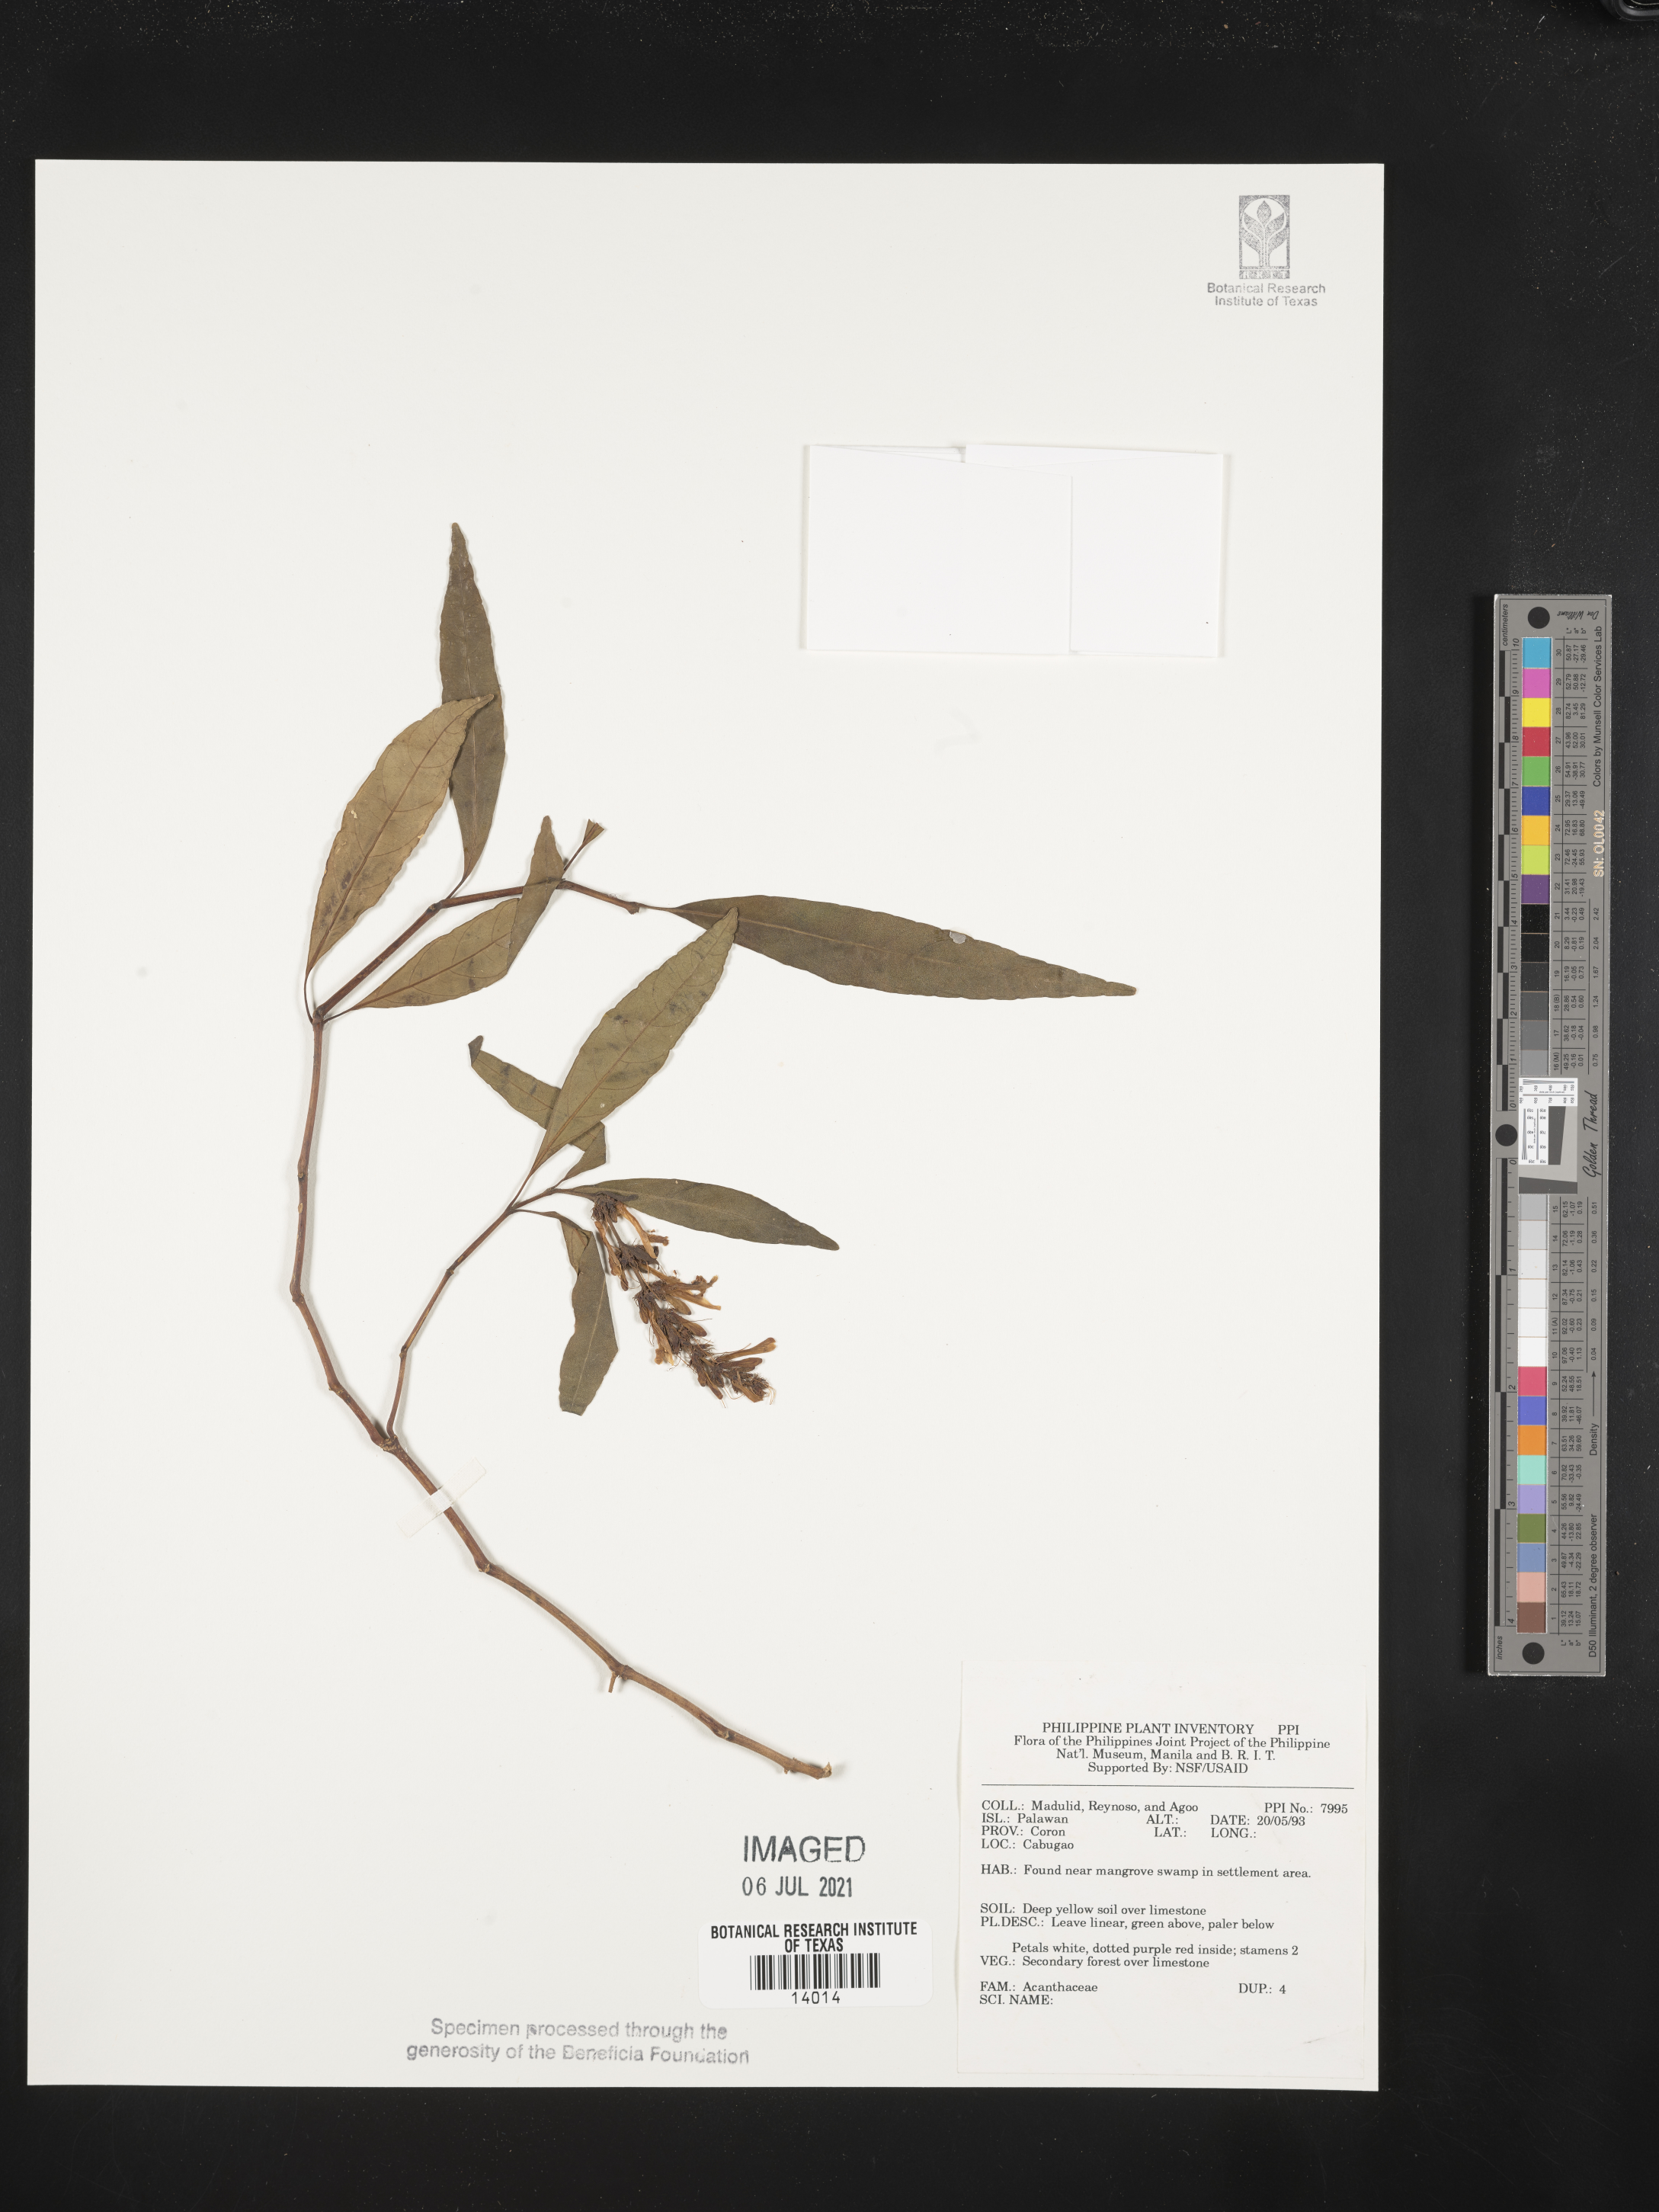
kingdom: Plantae
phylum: Tracheophyta
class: Magnoliopsida
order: Lamiales
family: Acanthaceae
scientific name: Acanthaceae
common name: Acanthaceae
